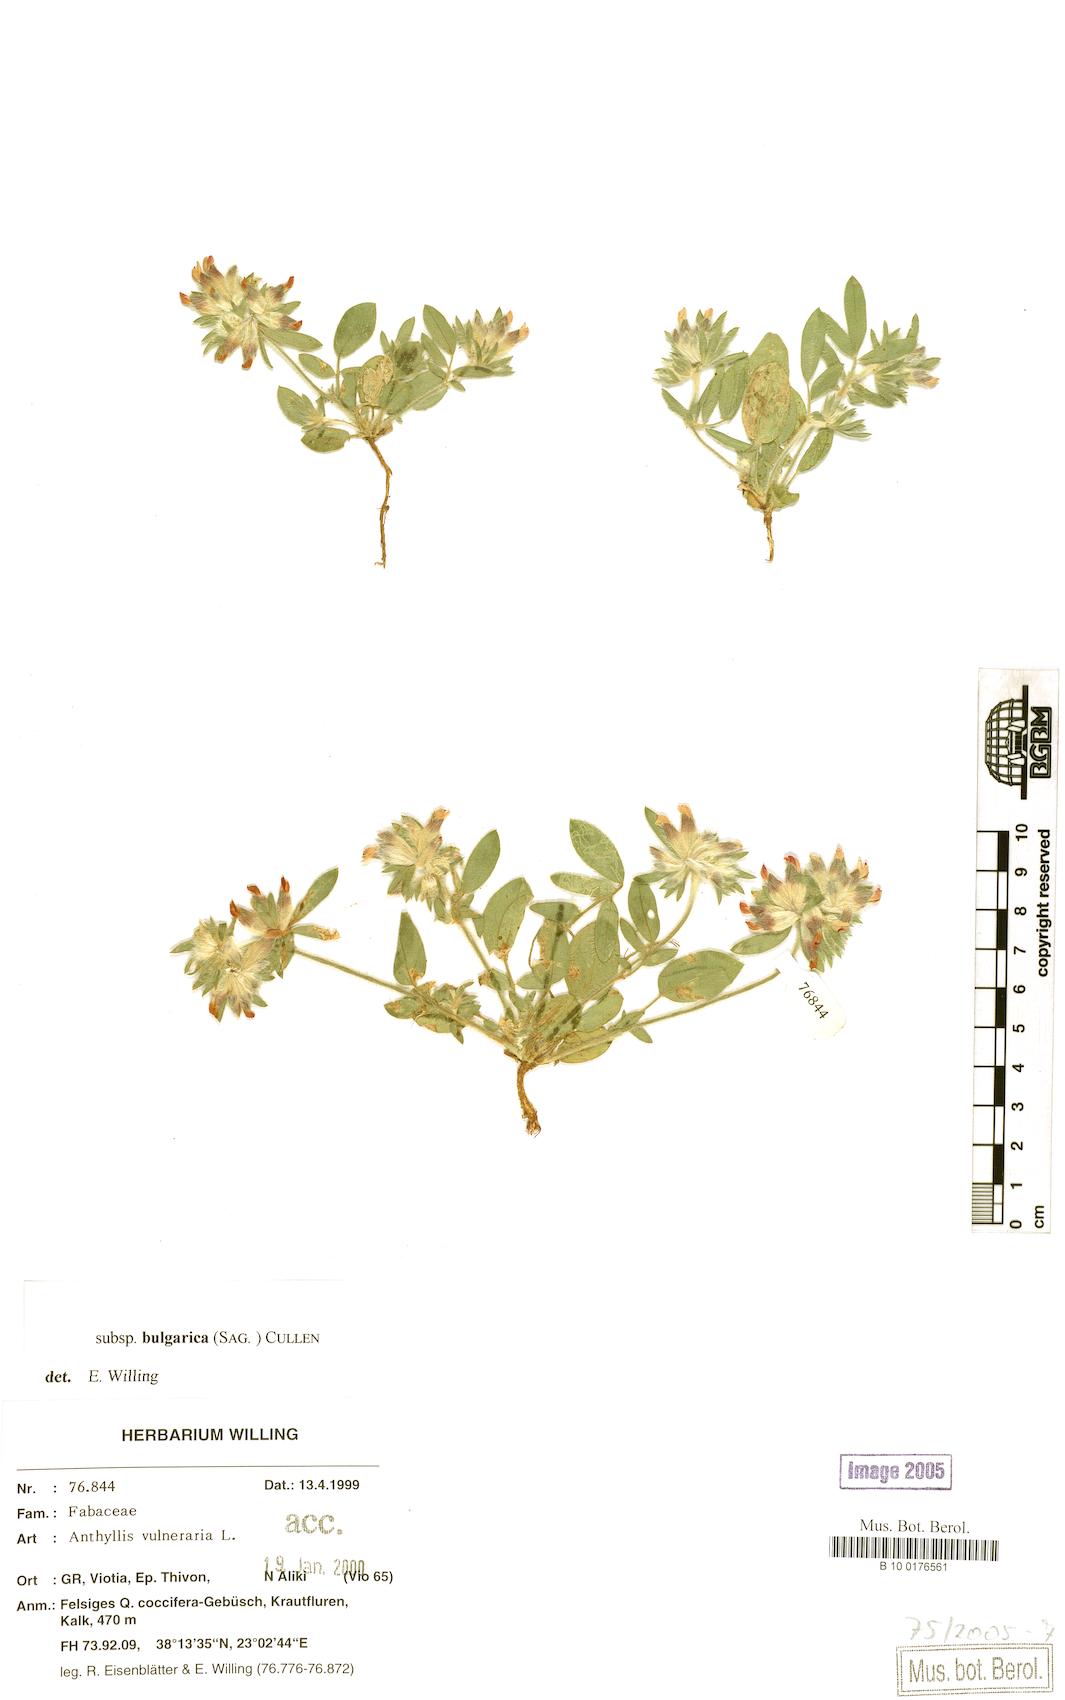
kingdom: Plantae
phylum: Tracheophyta
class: Magnoliopsida
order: Fabales
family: Fabaceae
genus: Anthyllis
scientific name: Anthyllis vulneraria
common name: Kidney vetch
